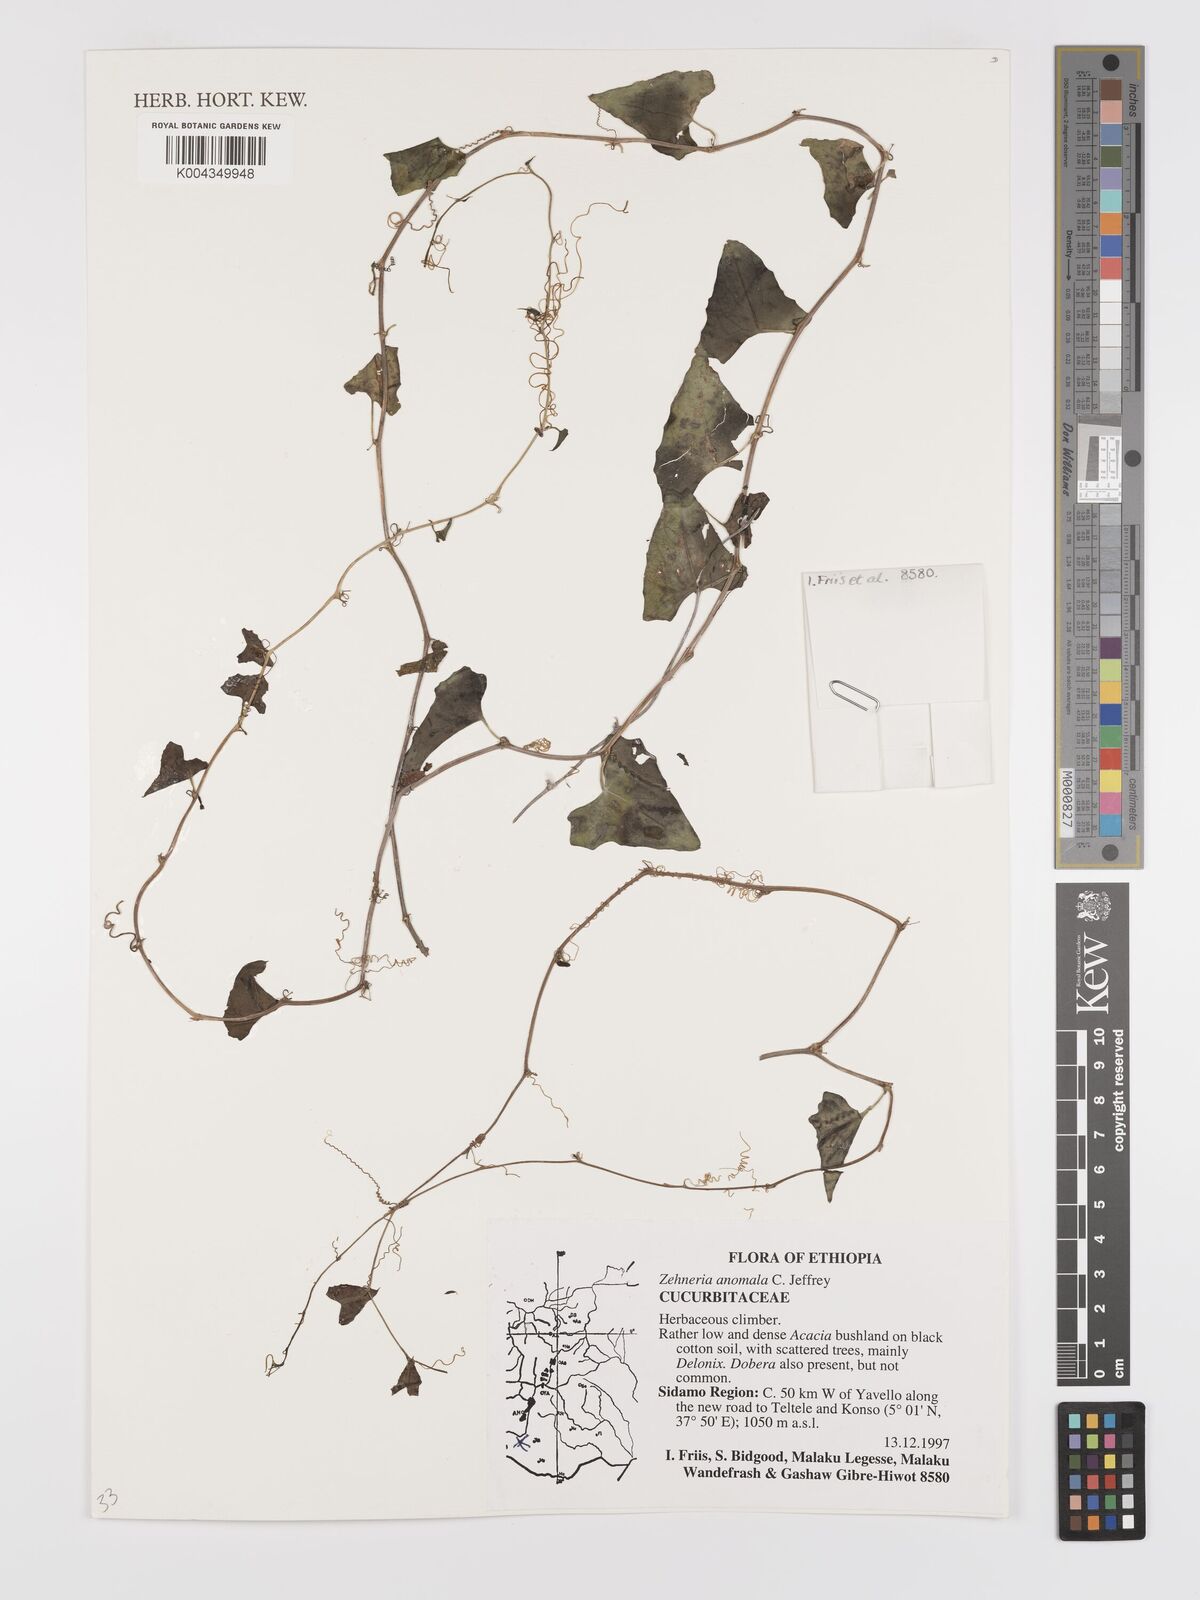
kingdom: Plantae
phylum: Tracheophyta
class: Magnoliopsida
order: Cucurbitales
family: Cucurbitaceae
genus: Zehneria
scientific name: Zehneria anomala
